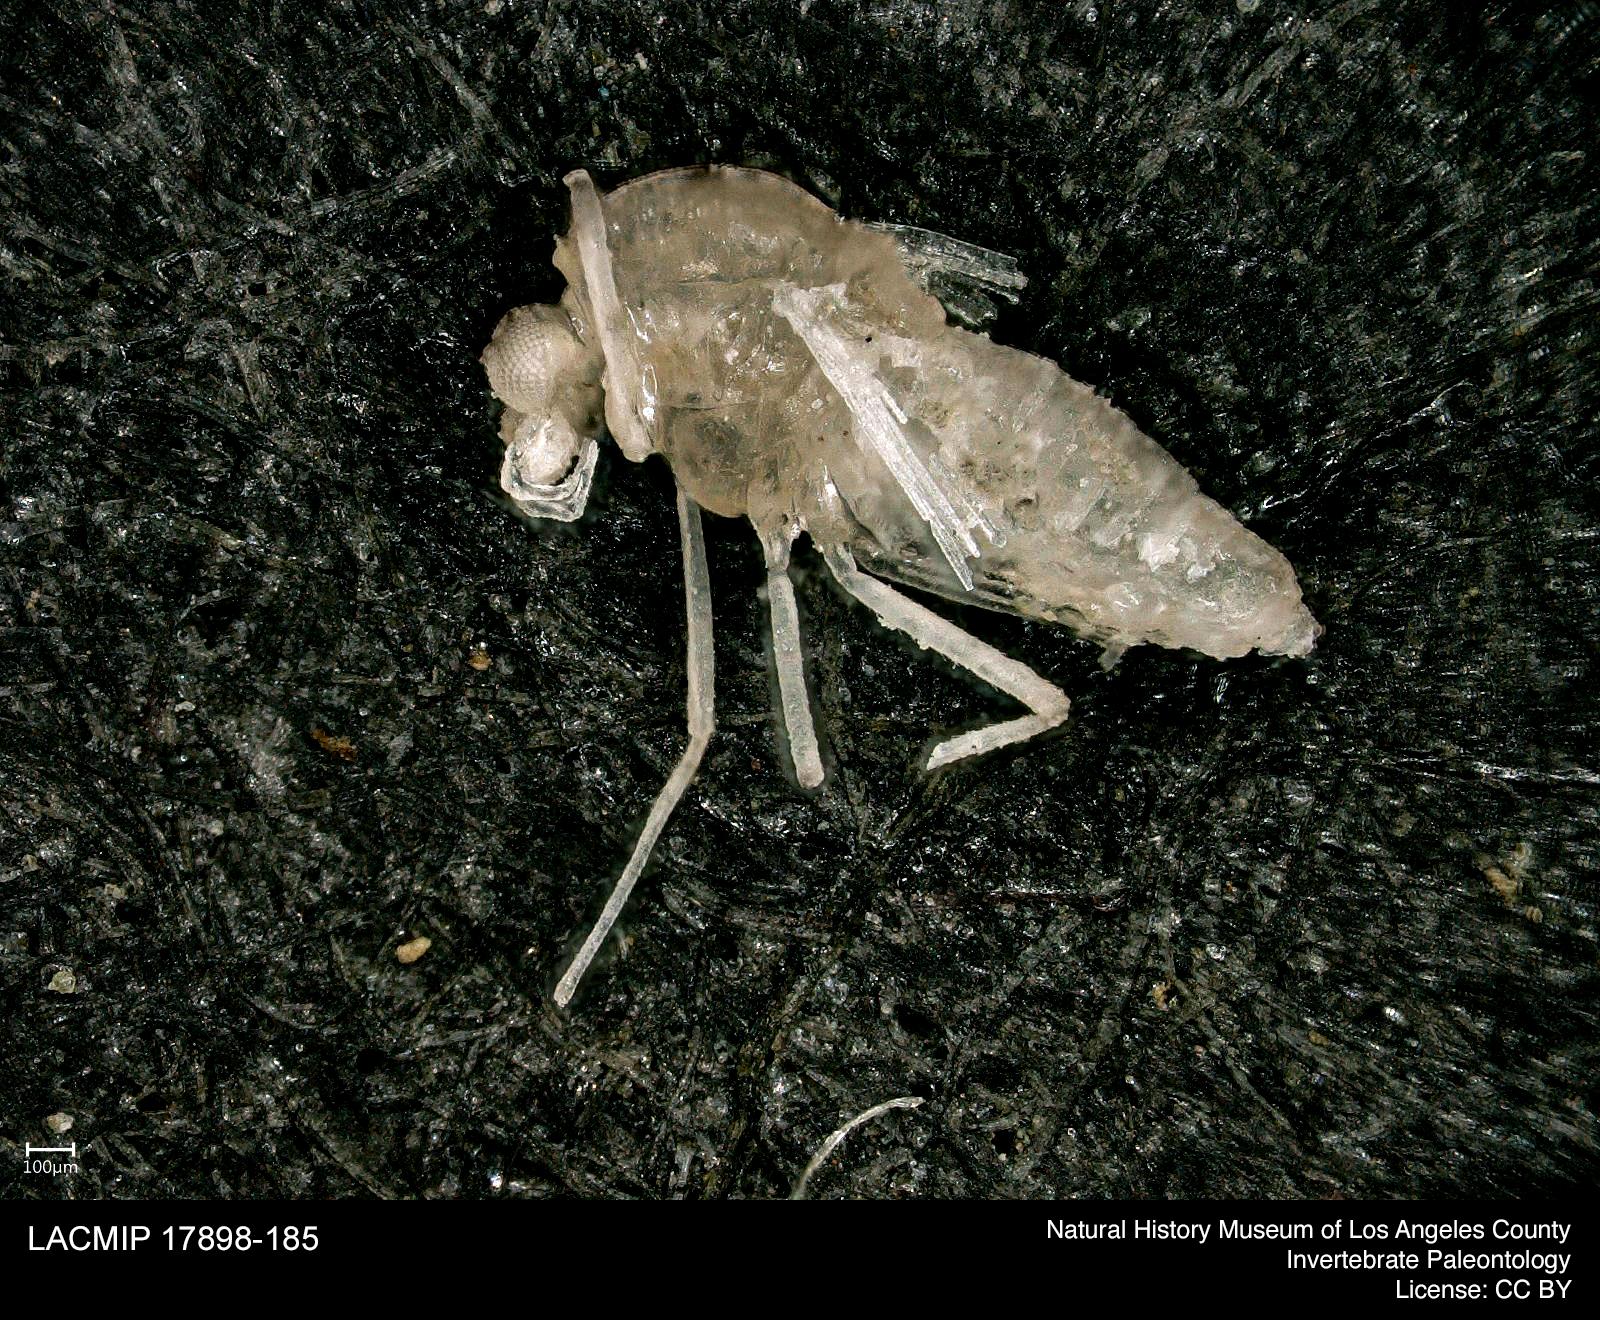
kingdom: Animalia
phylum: Arthropoda
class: Insecta
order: Diptera
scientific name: Diptera
